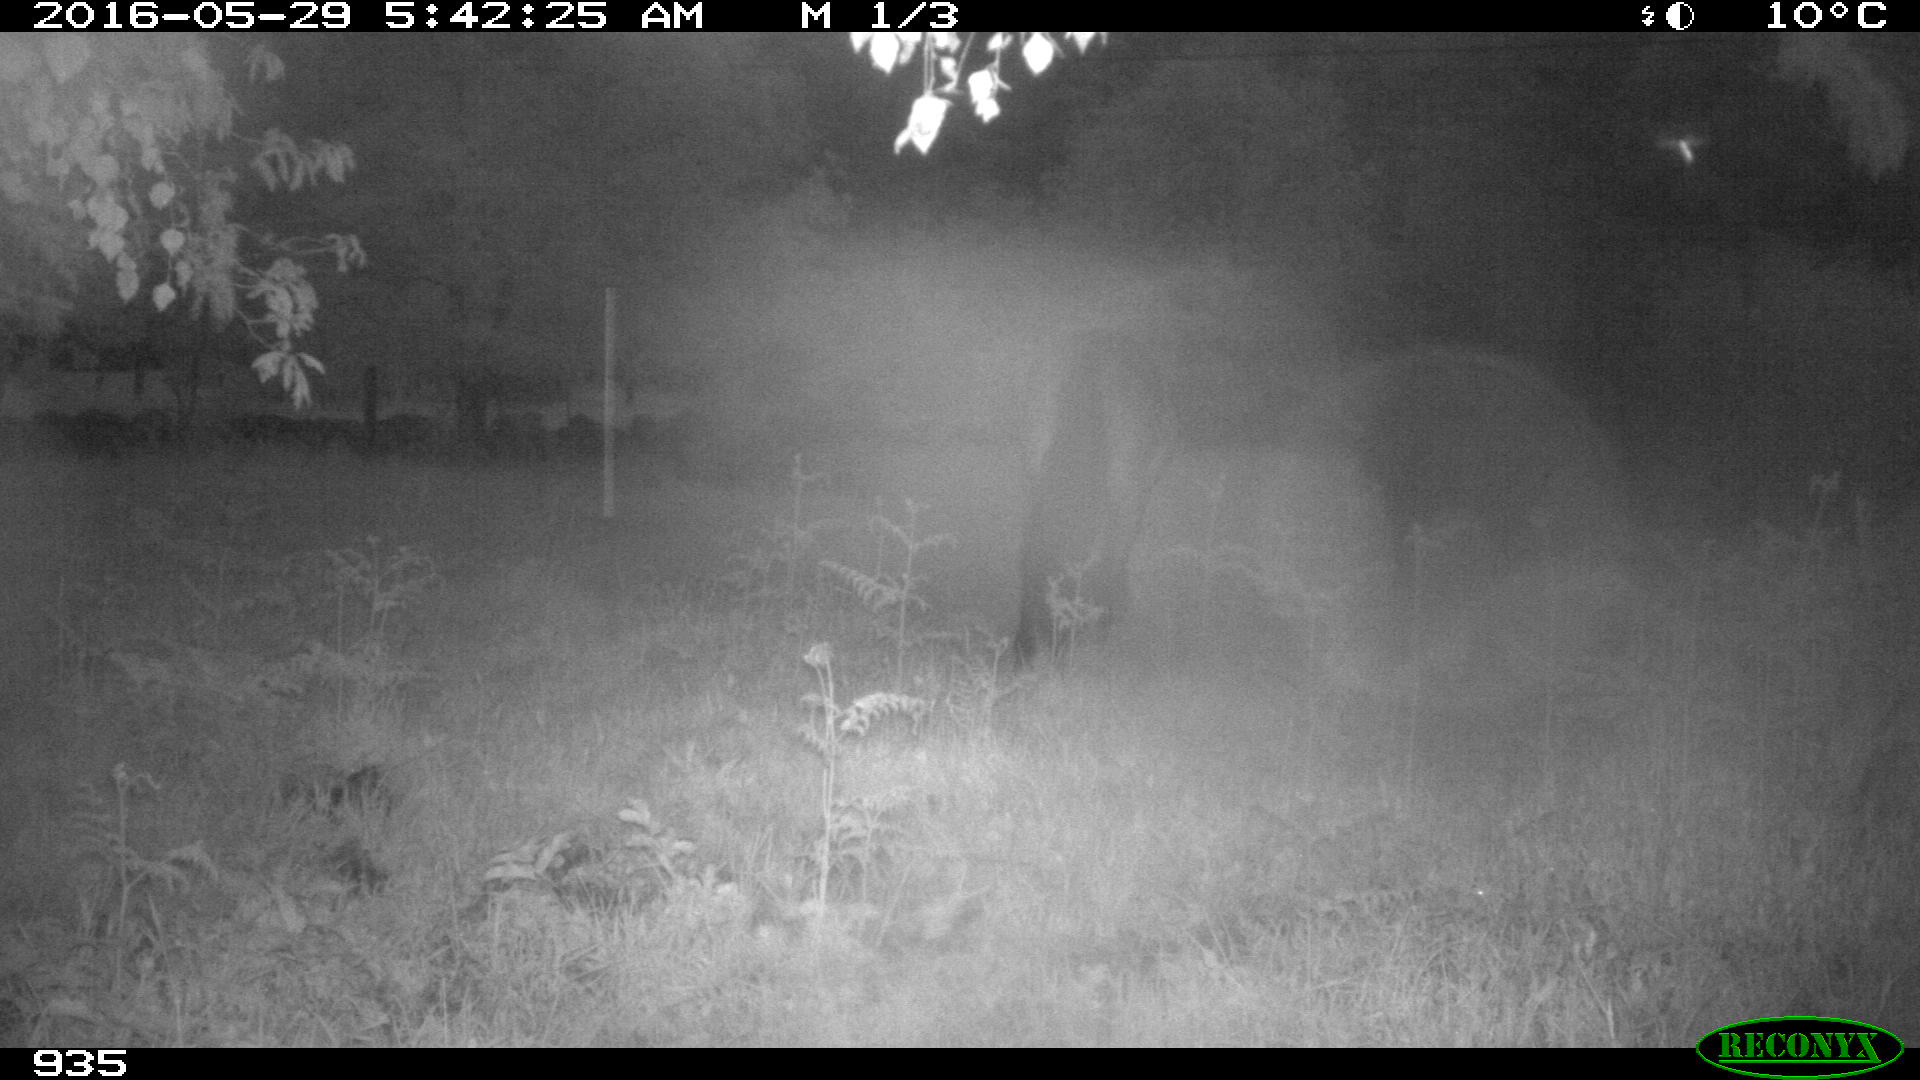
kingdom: Animalia
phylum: Chordata
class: Mammalia
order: Perissodactyla
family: Equidae
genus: Equus
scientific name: Equus caballus
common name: Horse
